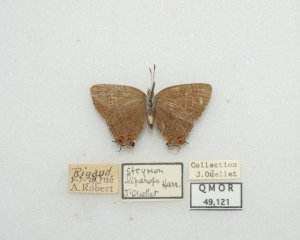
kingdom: Animalia
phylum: Arthropoda
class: Insecta
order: Lepidoptera
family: Lycaenidae
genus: Satyrium
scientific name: Satyrium liparops
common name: Striped Hairstreak
